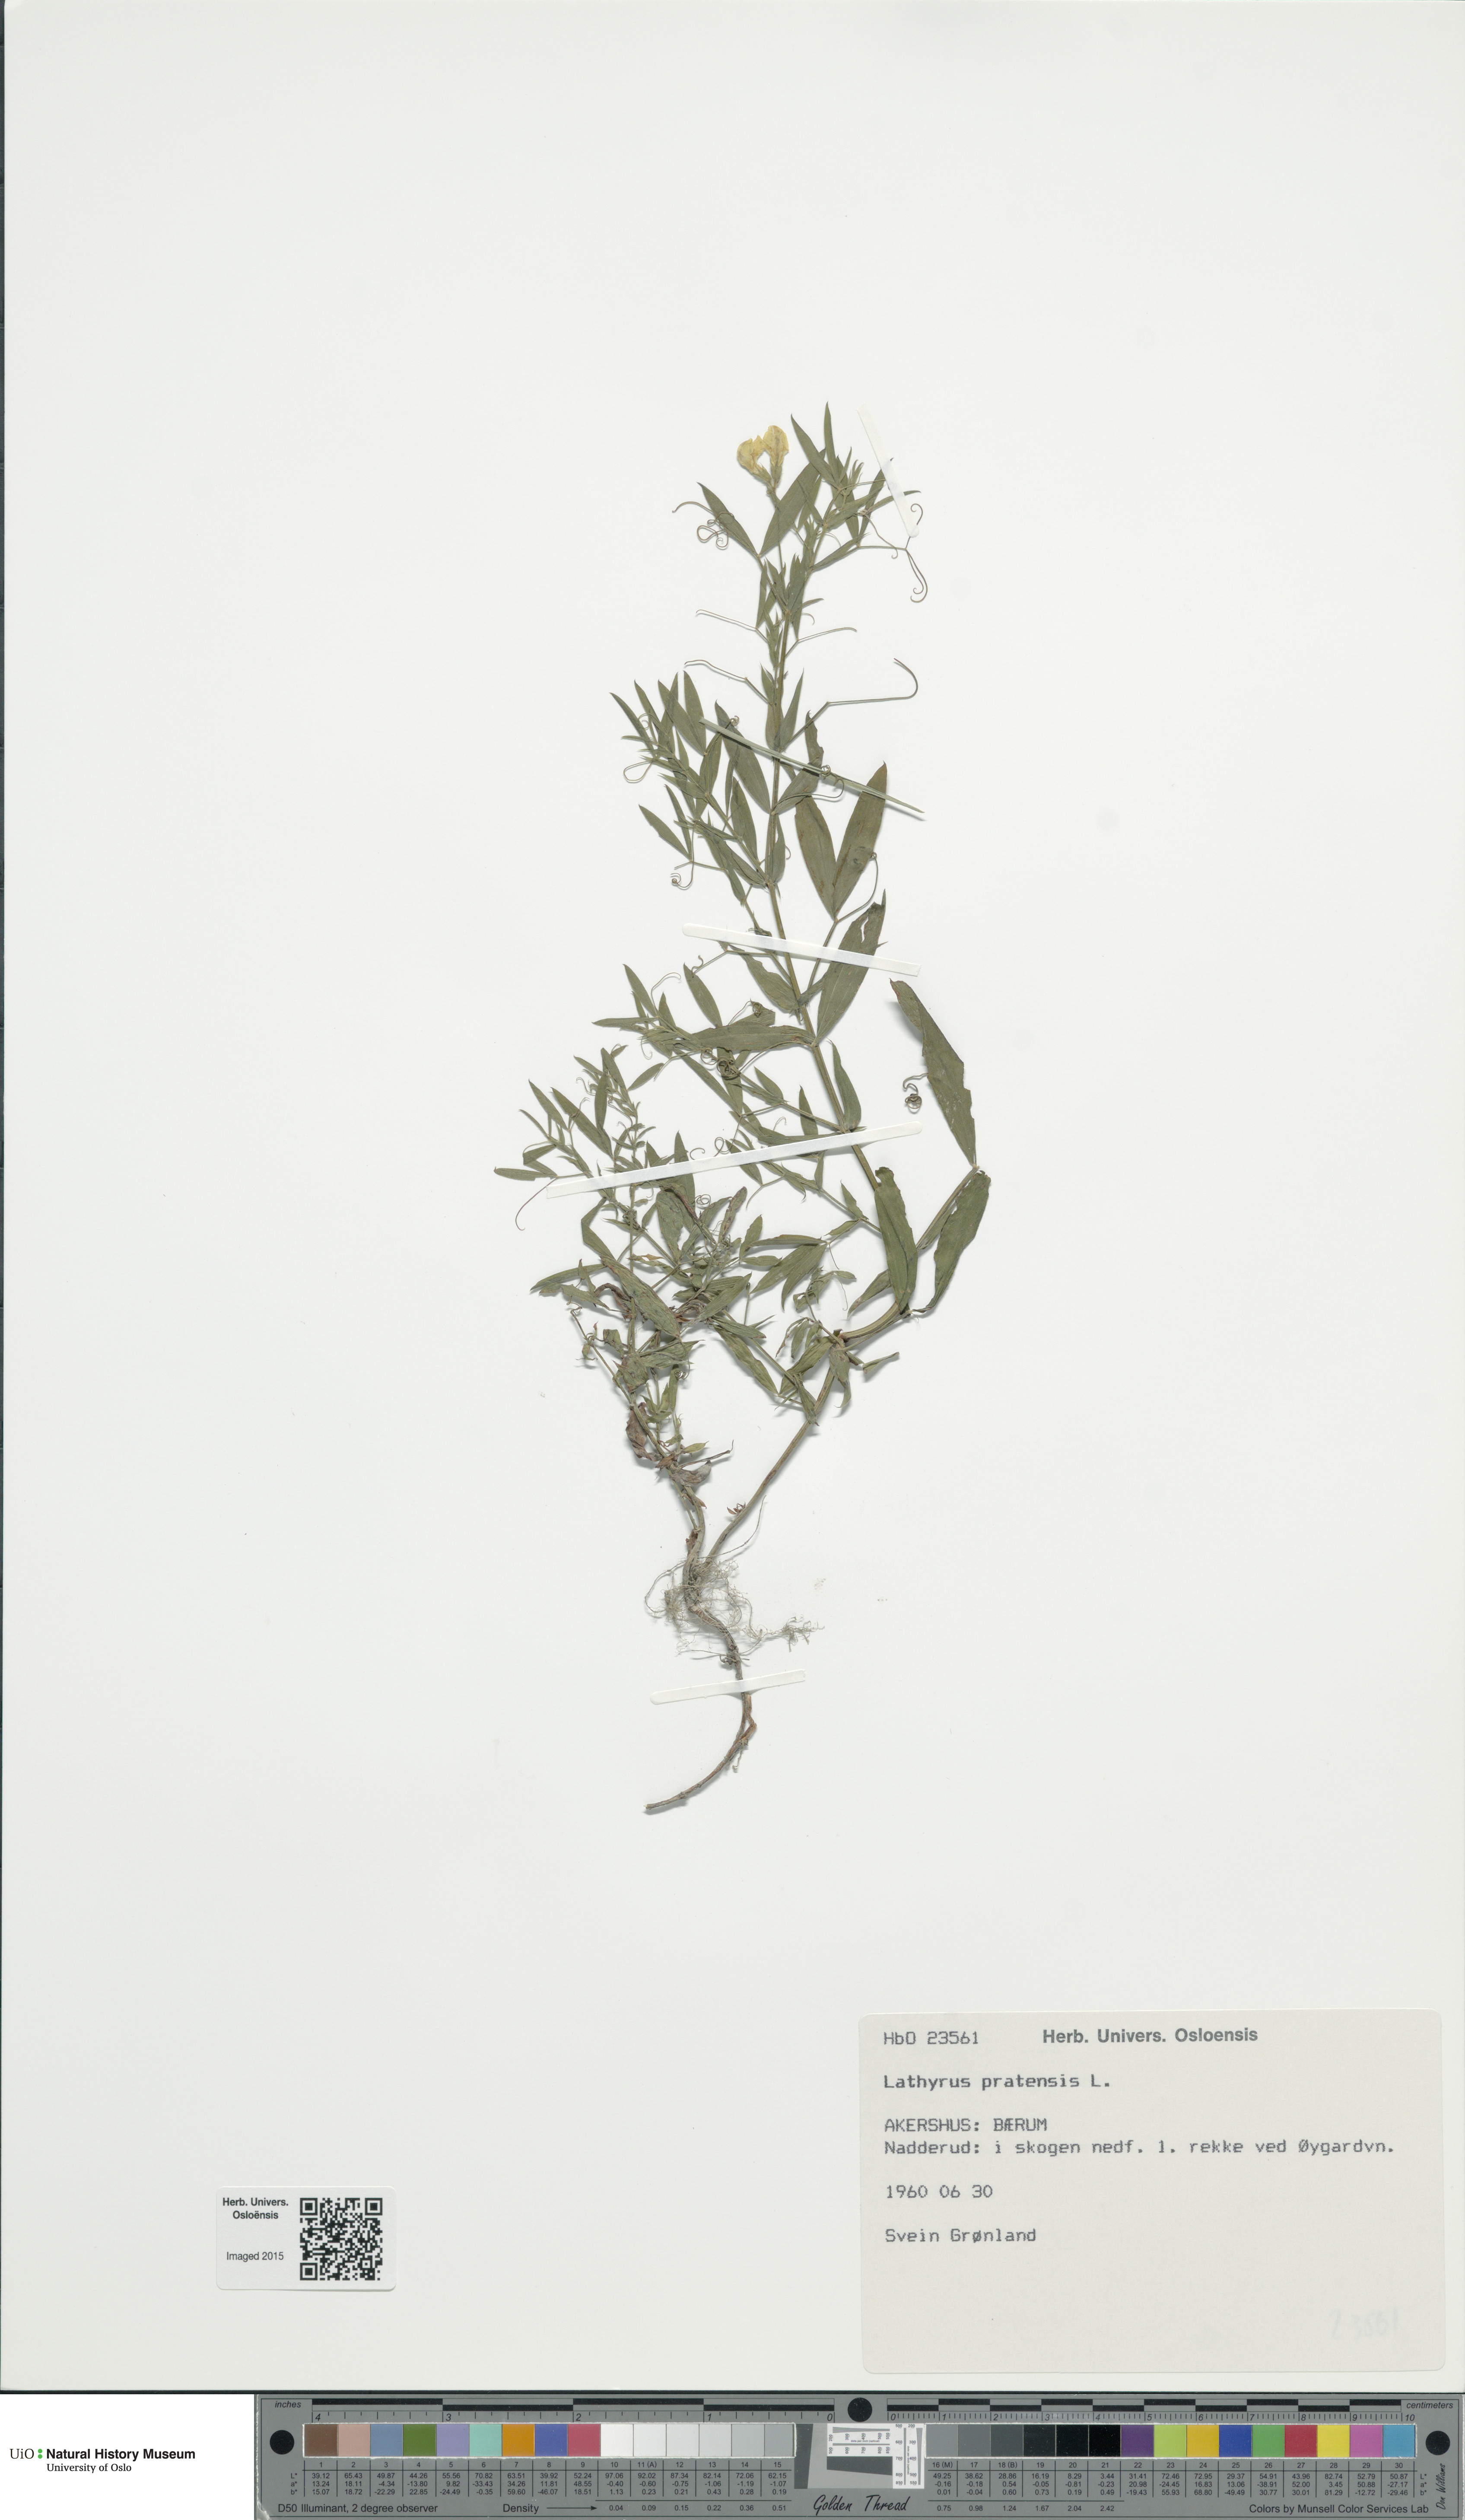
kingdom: Plantae
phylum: Tracheophyta
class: Magnoliopsida
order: Fabales
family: Fabaceae
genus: Lathyrus
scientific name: Lathyrus pratensis
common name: Meadow vetchling
